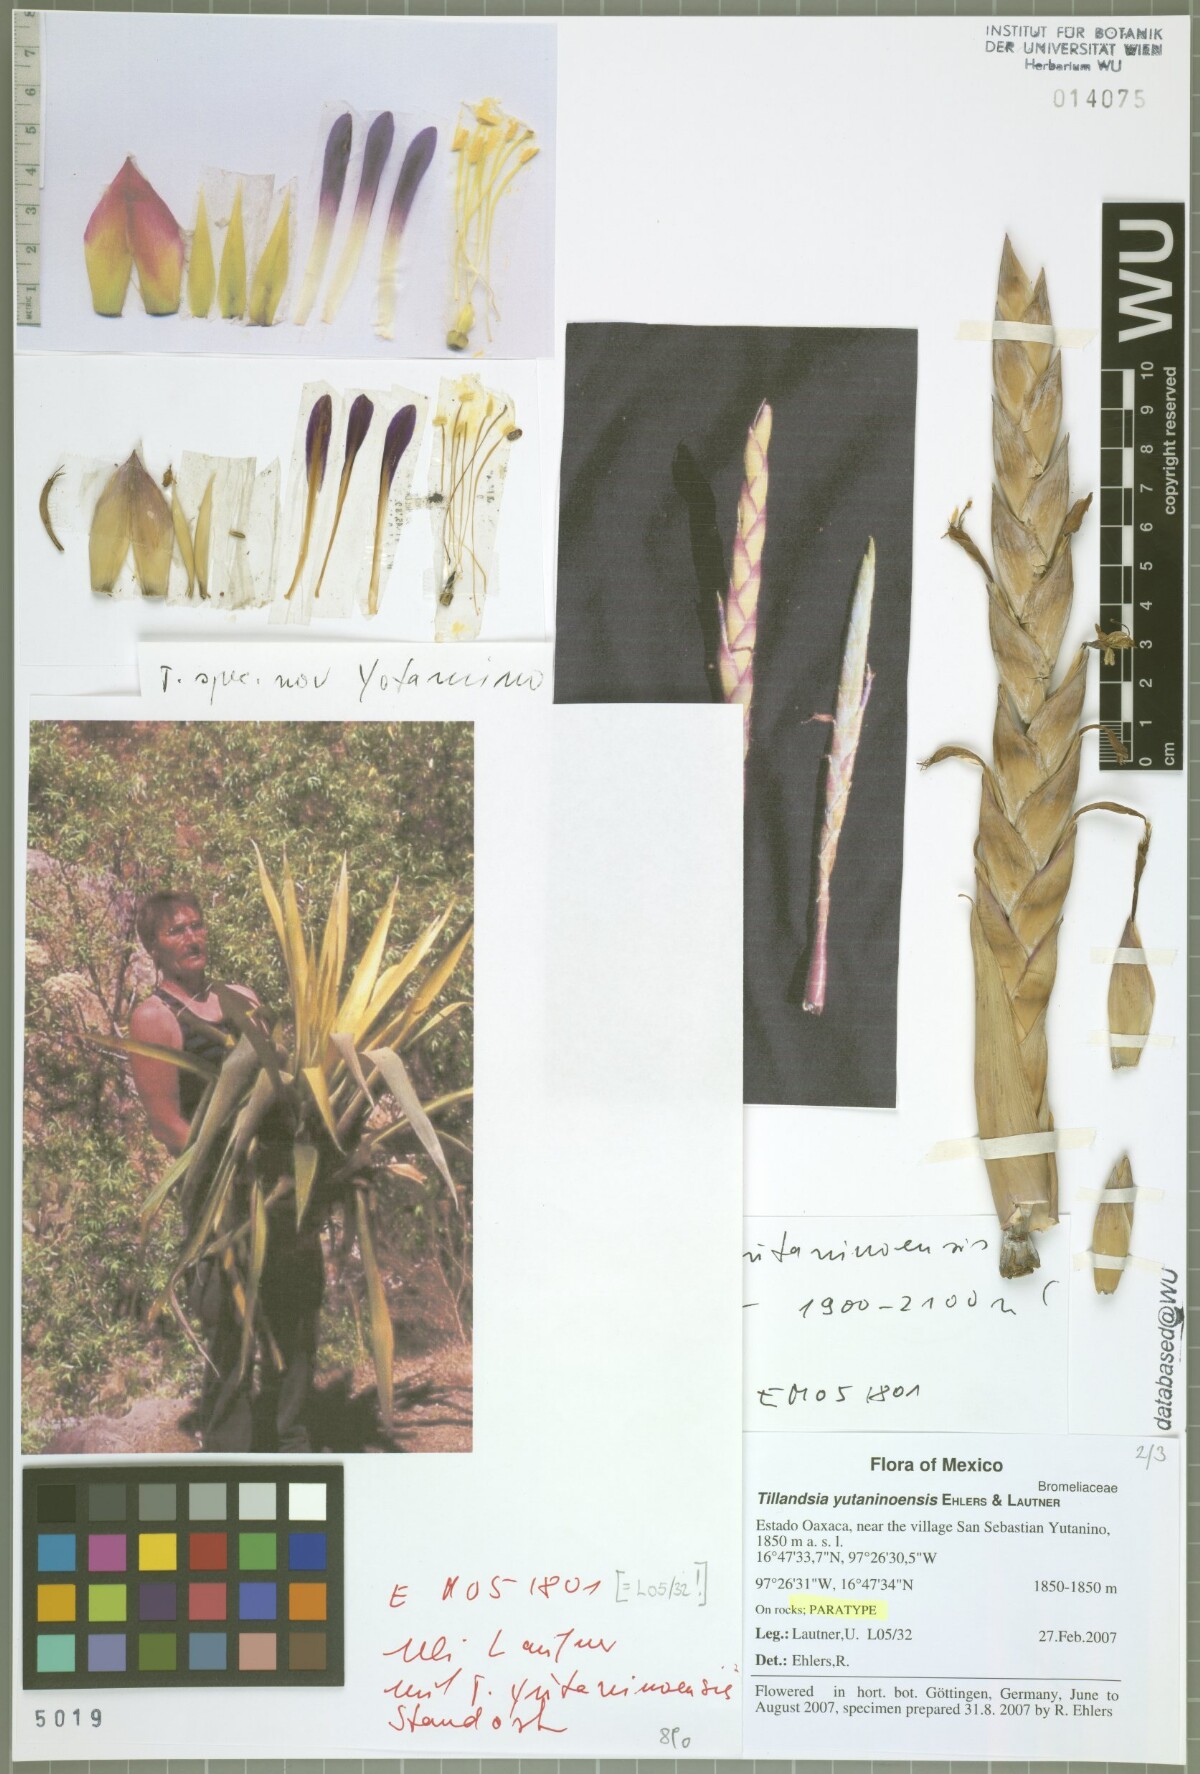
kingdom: Plantae
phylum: Tracheophyta
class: Liliopsida
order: Poales
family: Bromeliaceae
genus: Tillandsia
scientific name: Tillandsia yutaninoensis
